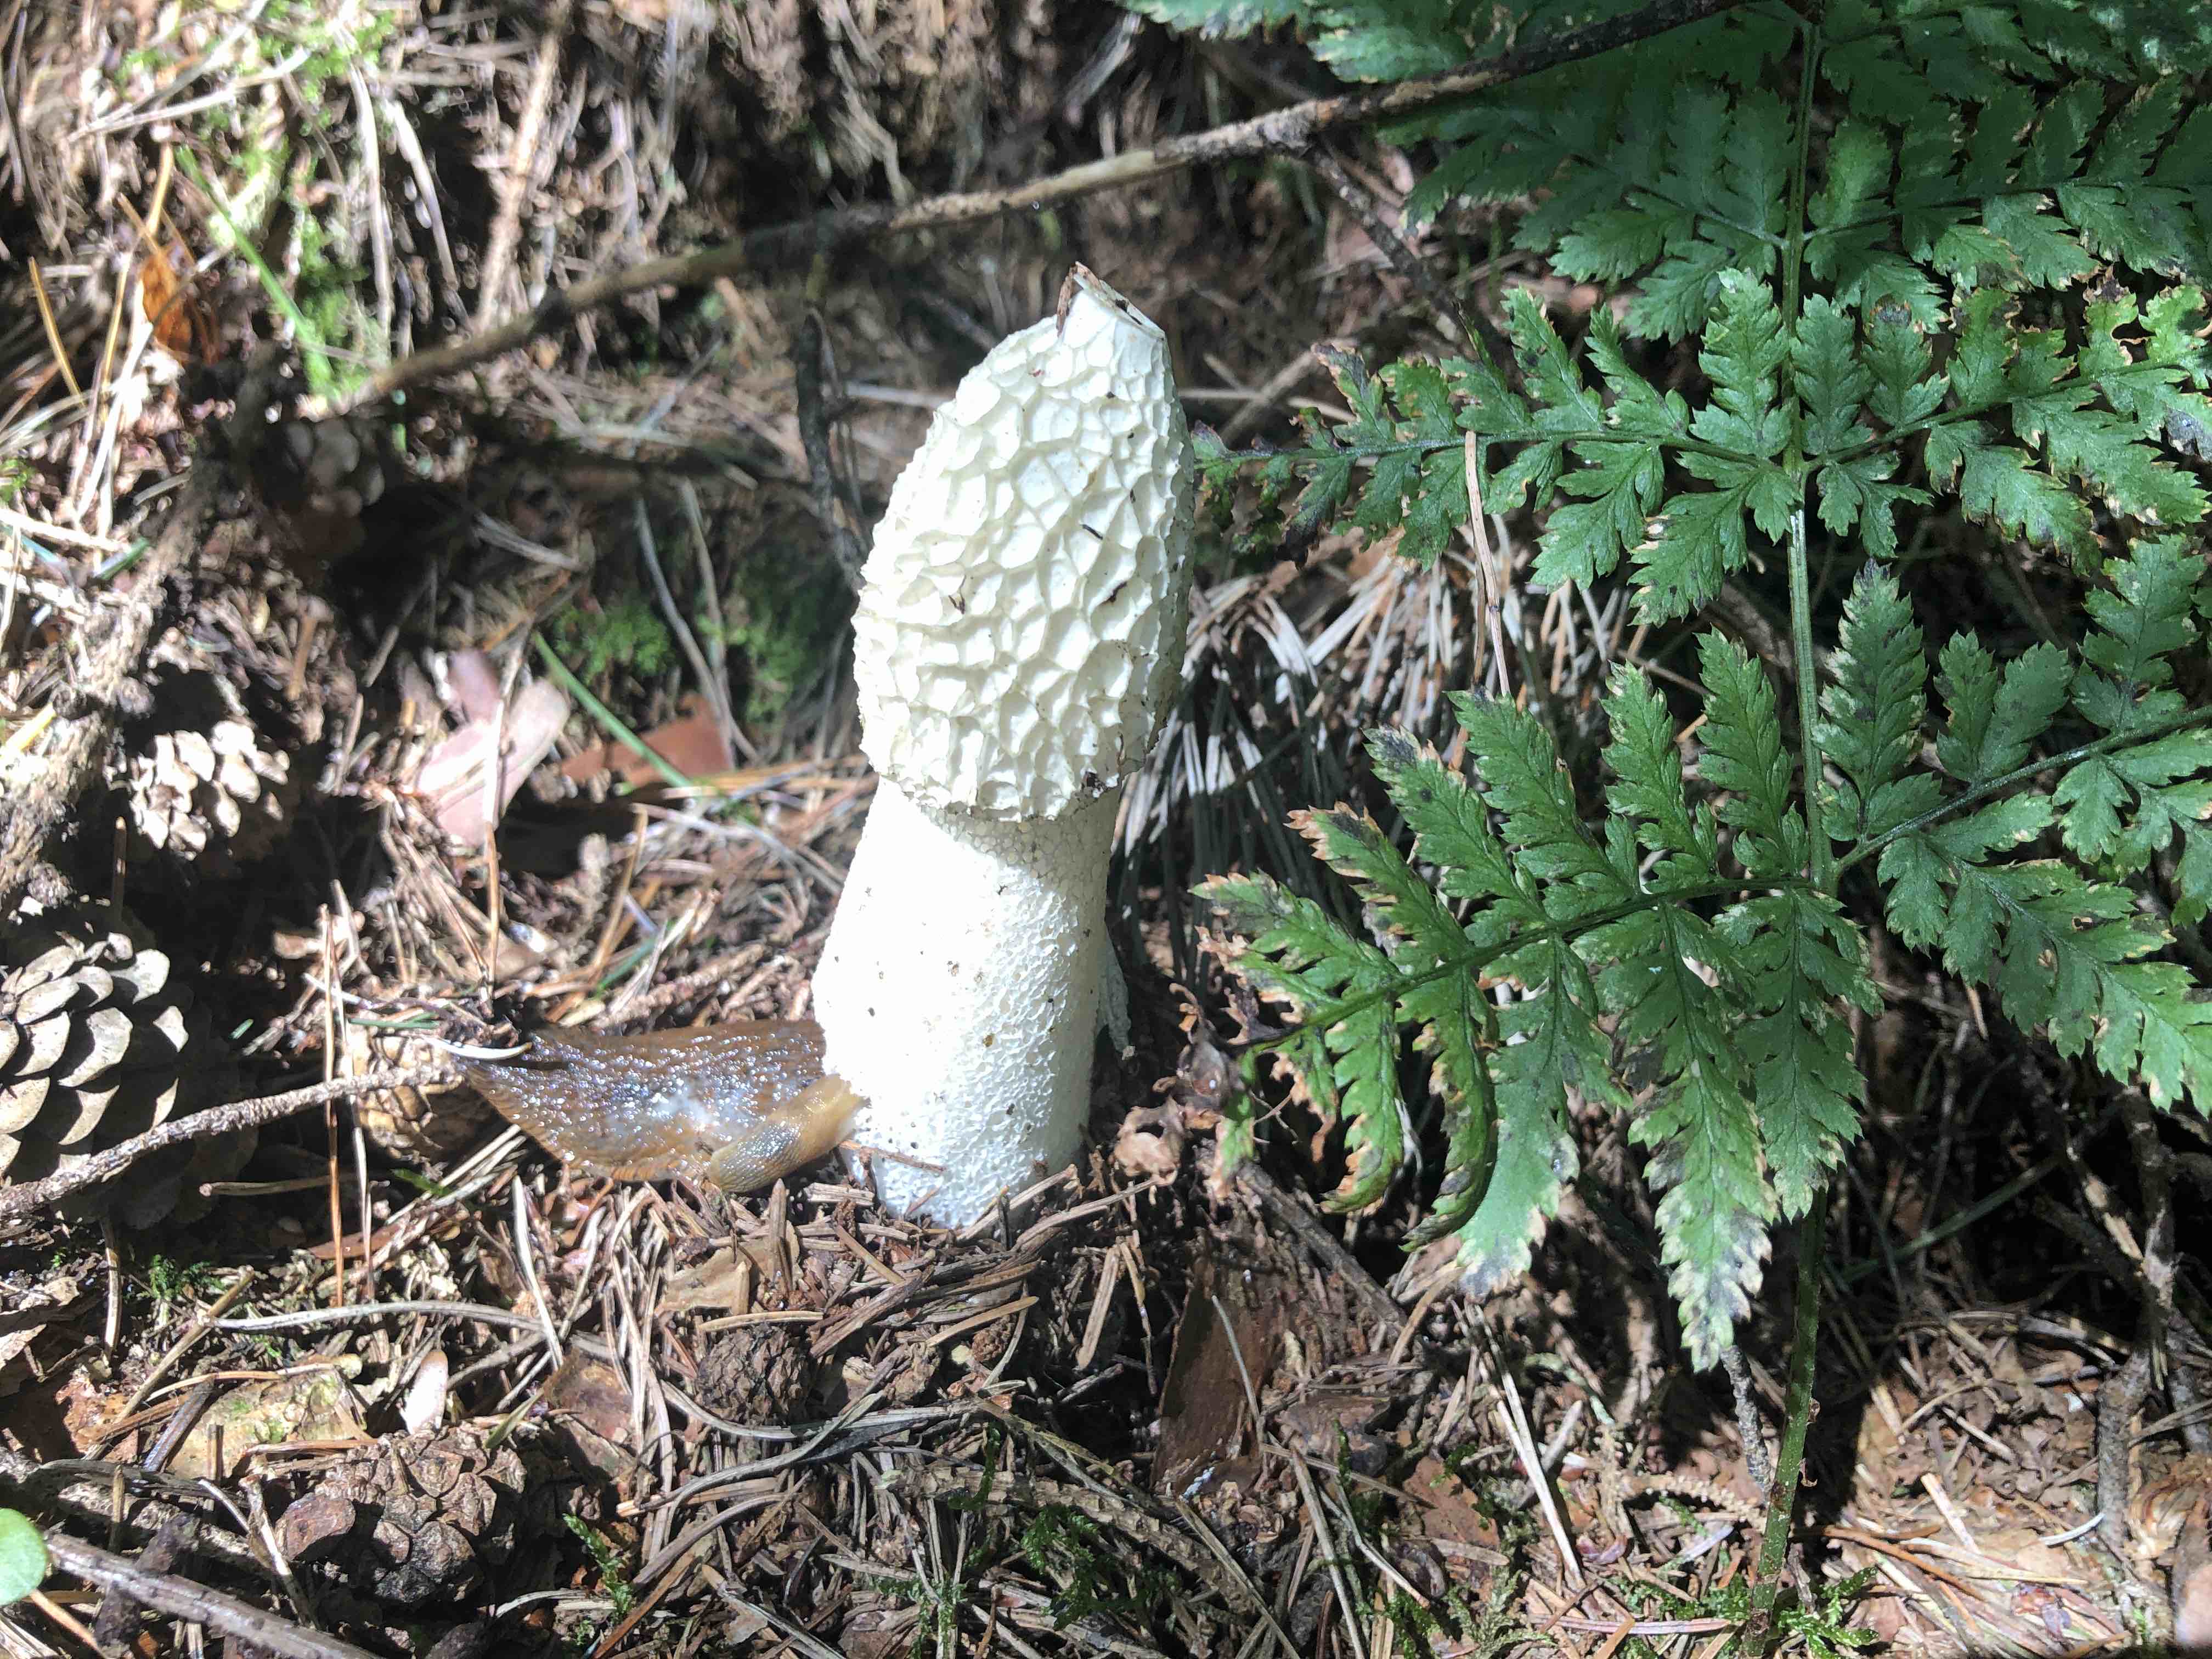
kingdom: Fungi
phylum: Basidiomycota
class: Agaricomycetes
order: Phallales
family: Phallaceae
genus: Phallus
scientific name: Phallus impudicus
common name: almindelig stinksvamp
